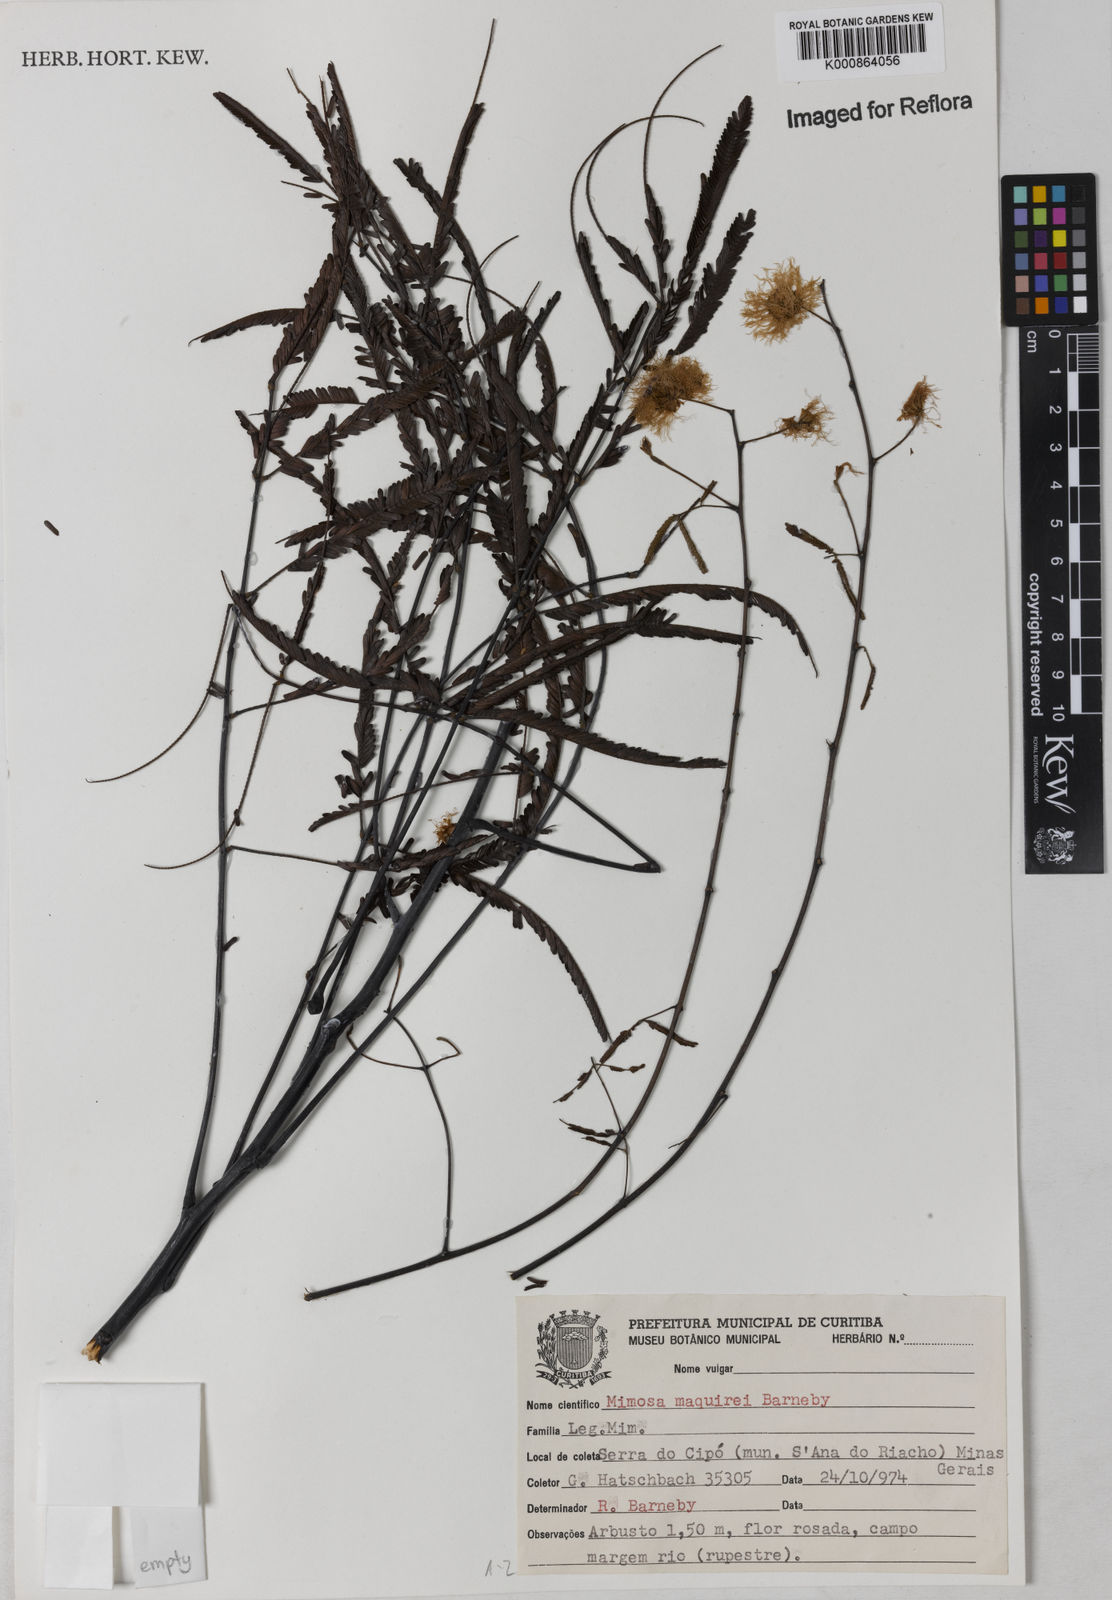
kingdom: Plantae
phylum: Tracheophyta
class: Magnoliopsida
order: Fabales
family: Fabaceae
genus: Mimosa
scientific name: Mimosa maguirei
